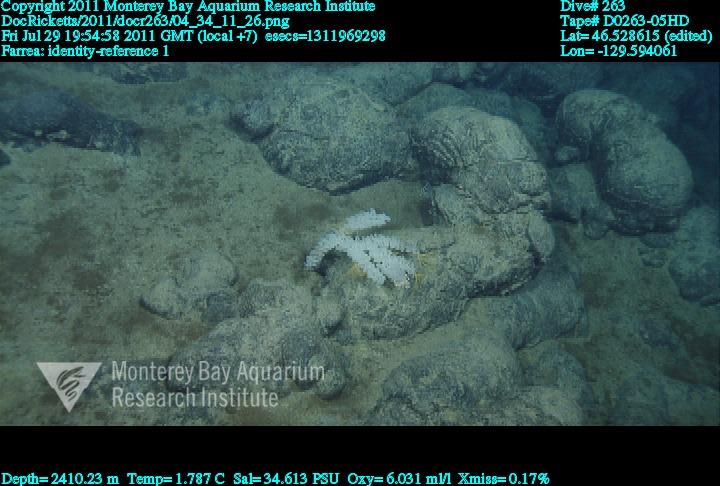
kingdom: Animalia
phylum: Porifera
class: Hexactinellida
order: Sceptrulophora
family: Farreidae
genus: Farrea
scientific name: Farrea
